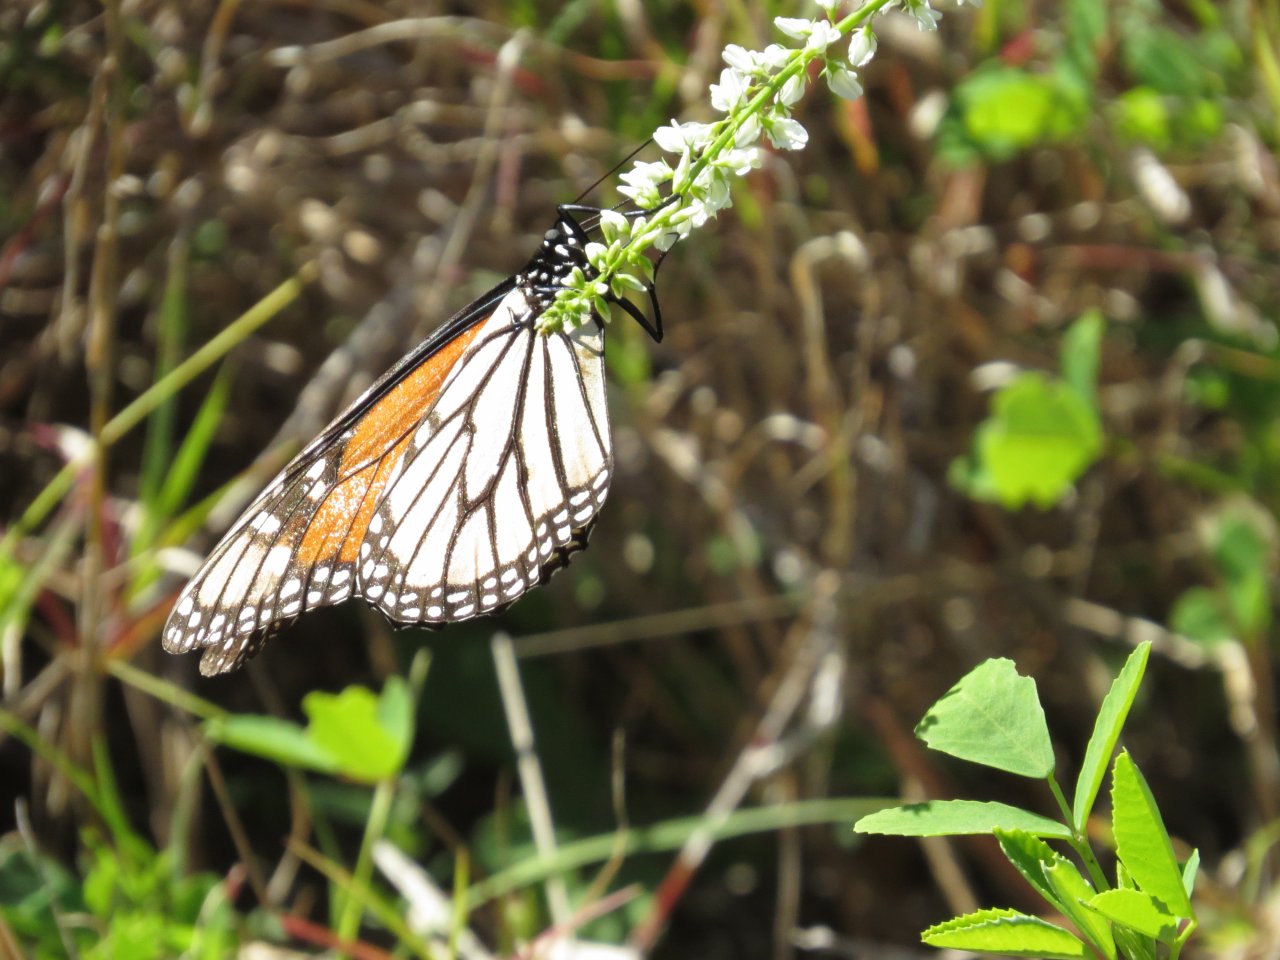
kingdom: Animalia
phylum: Arthropoda
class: Insecta
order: Lepidoptera
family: Nymphalidae
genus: Danaus
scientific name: Danaus plexippus
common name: Monarch
